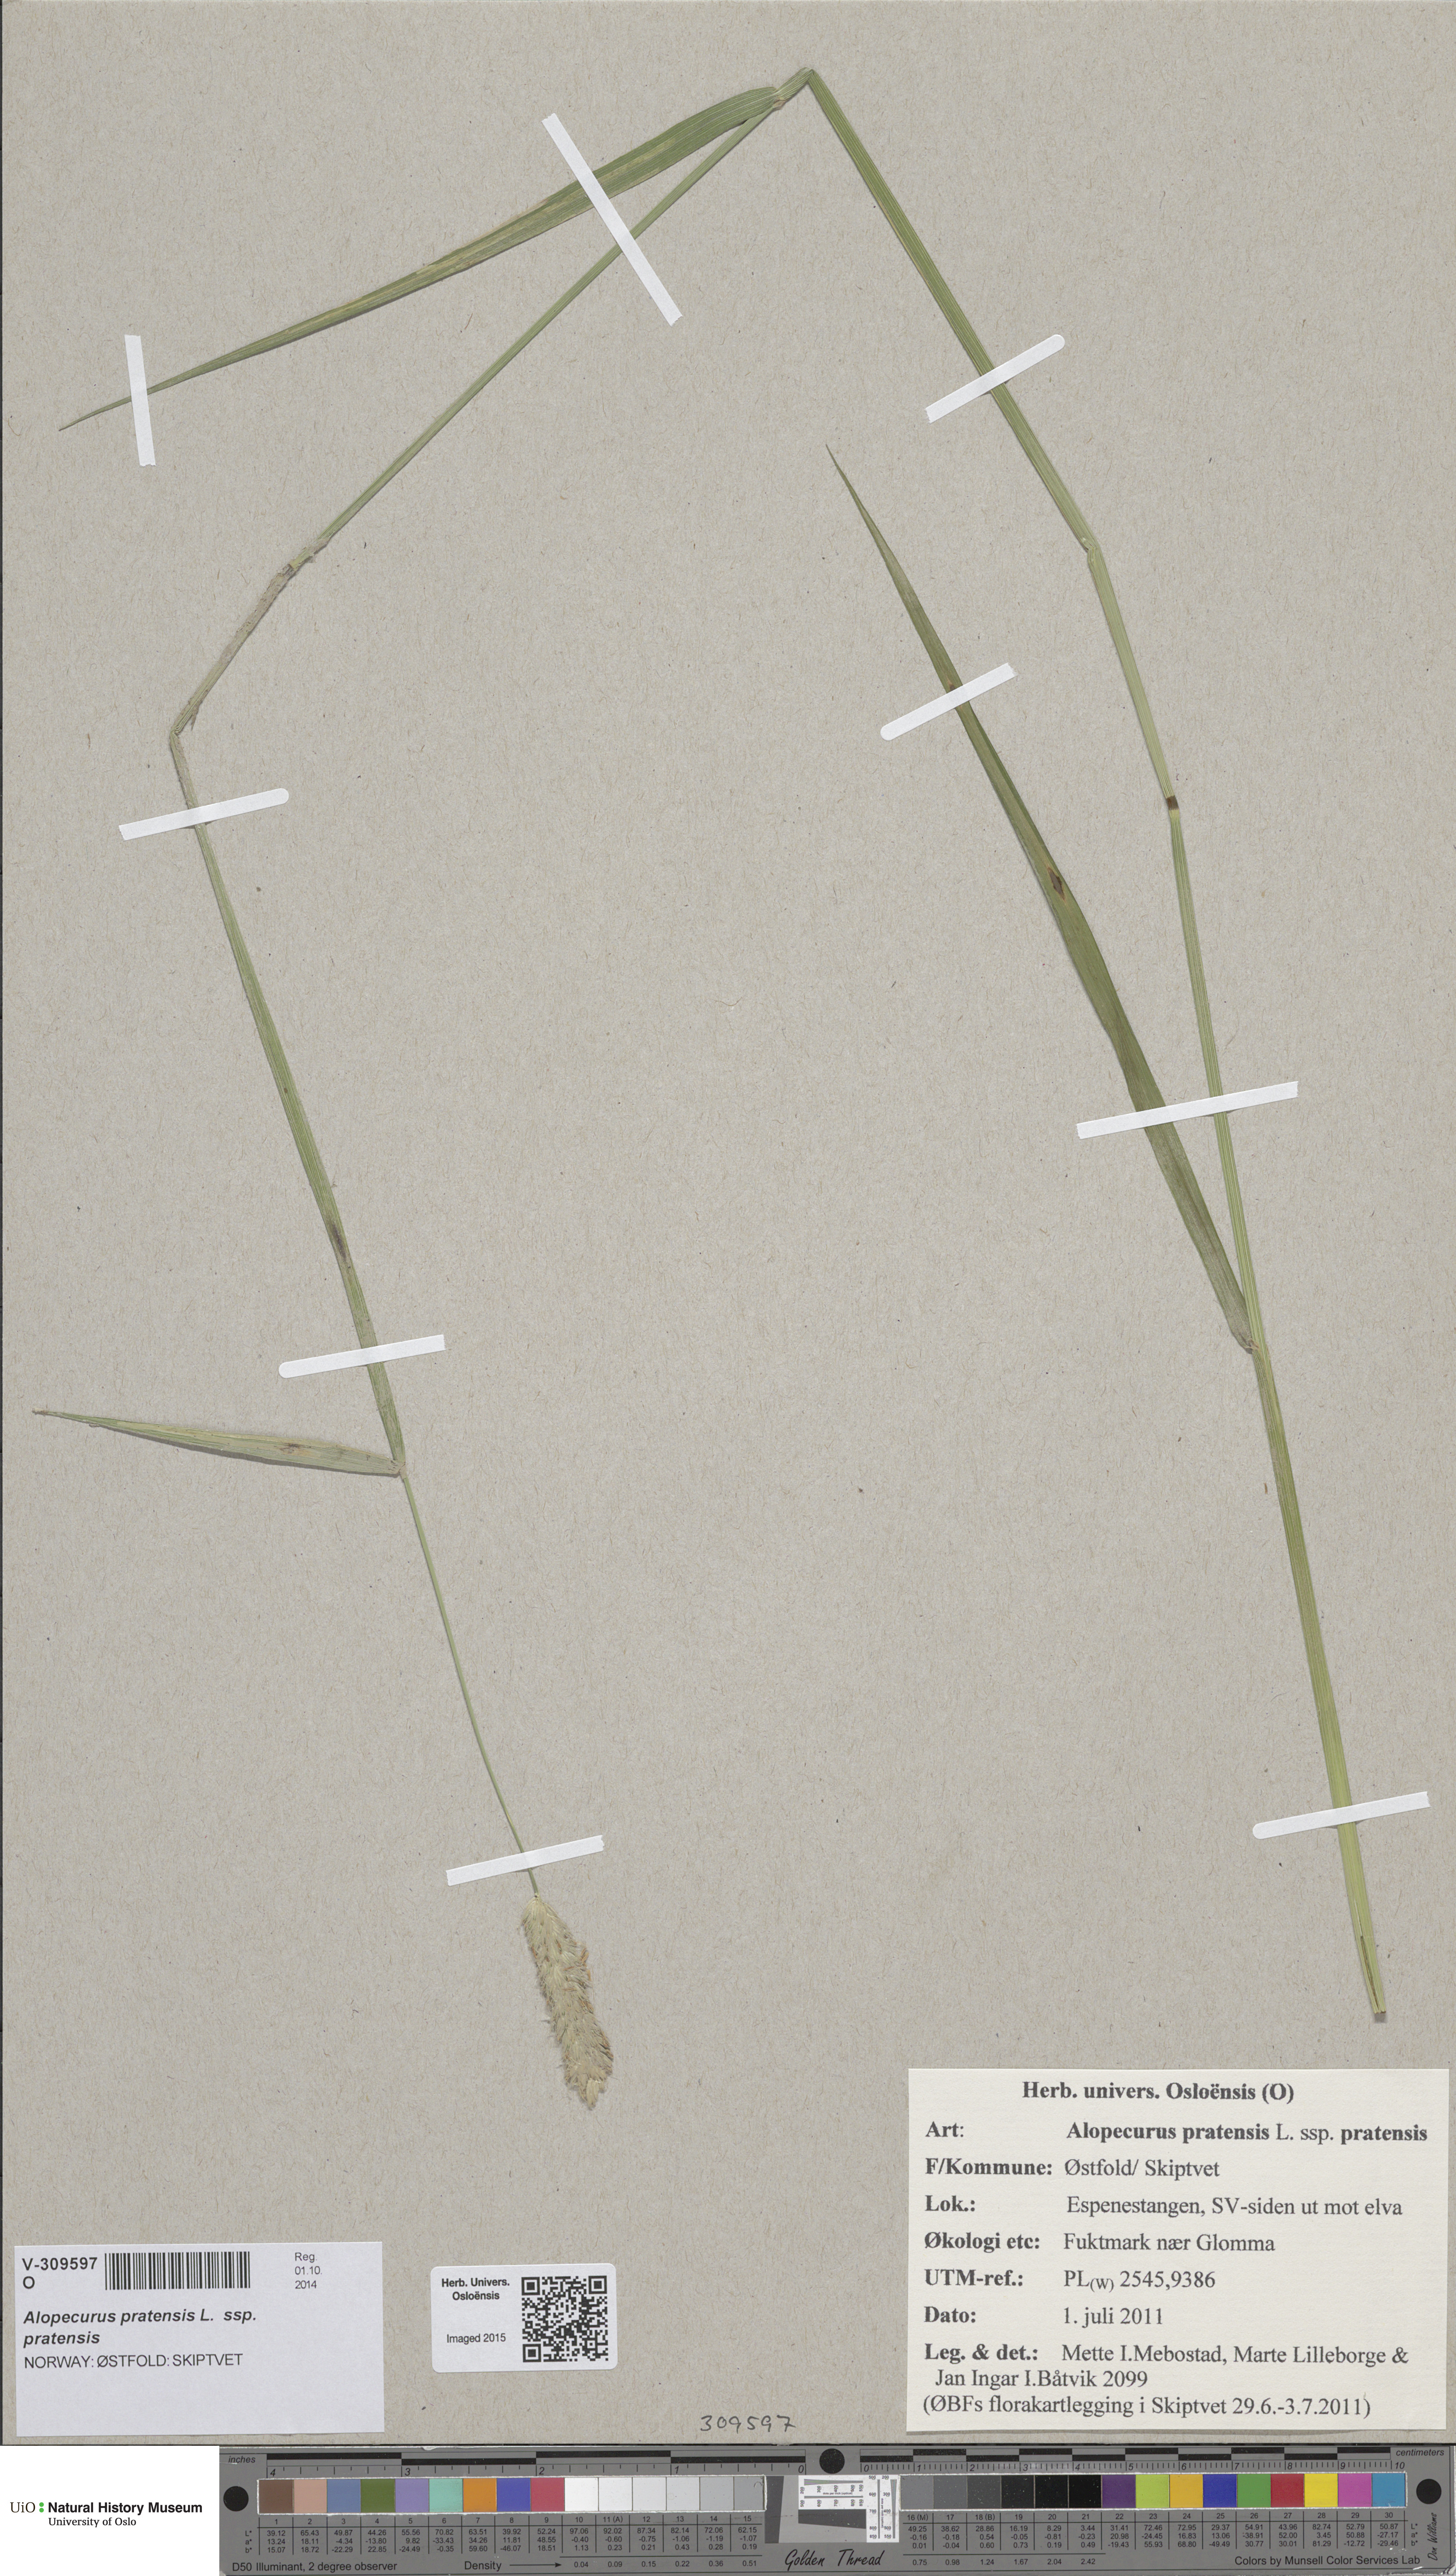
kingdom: Plantae
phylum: Tracheophyta
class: Liliopsida
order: Poales
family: Poaceae
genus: Alopecurus
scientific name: Alopecurus pratensis
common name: Meadow foxtail
